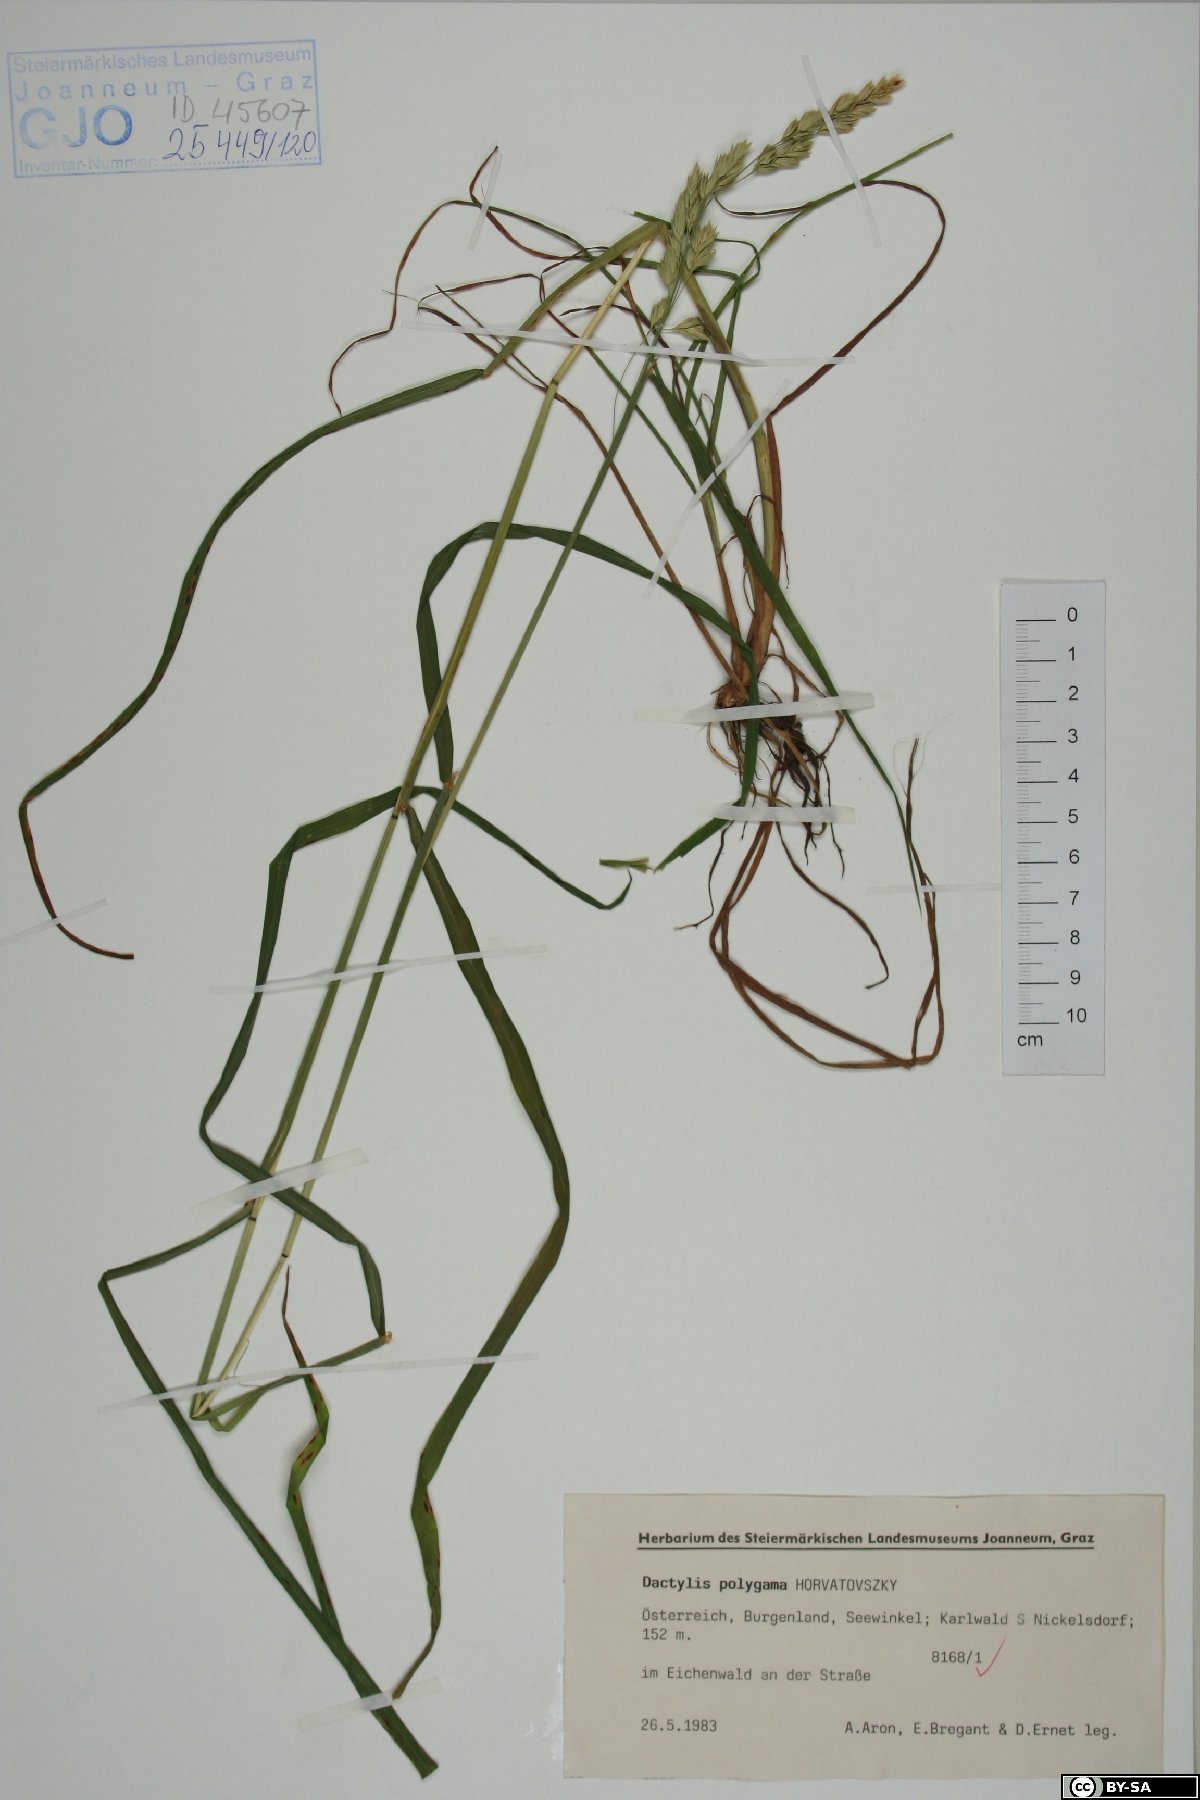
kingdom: Plantae
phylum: Tracheophyta
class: Liliopsida
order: Poales
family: Poaceae
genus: Dactylis
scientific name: Dactylis glomerata
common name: Orchardgrass
